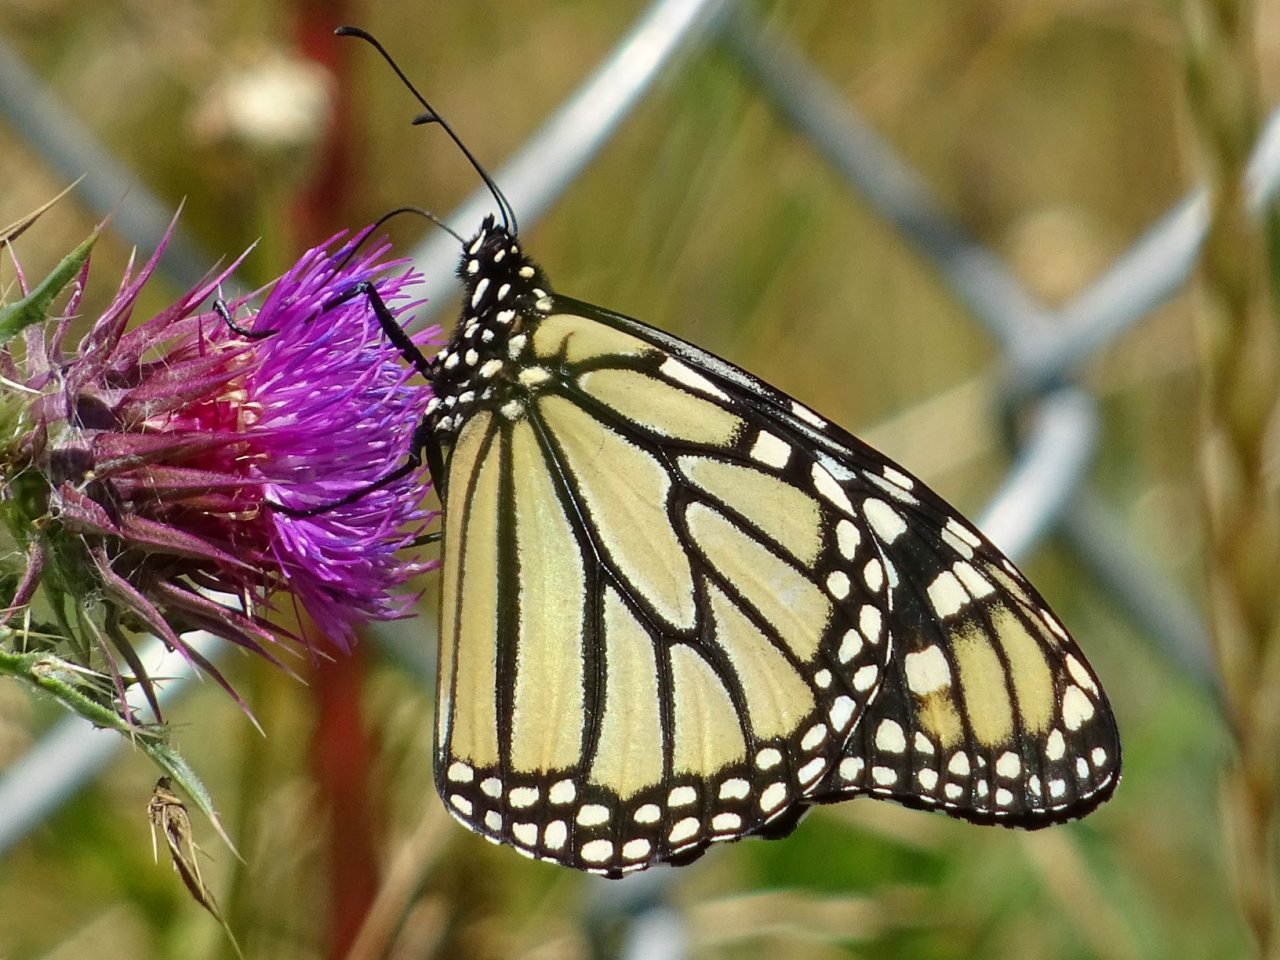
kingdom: Animalia
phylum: Arthropoda
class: Insecta
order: Lepidoptera
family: Nymphalidae
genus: Danaus
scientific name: Danaus plexippus
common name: Monarch
